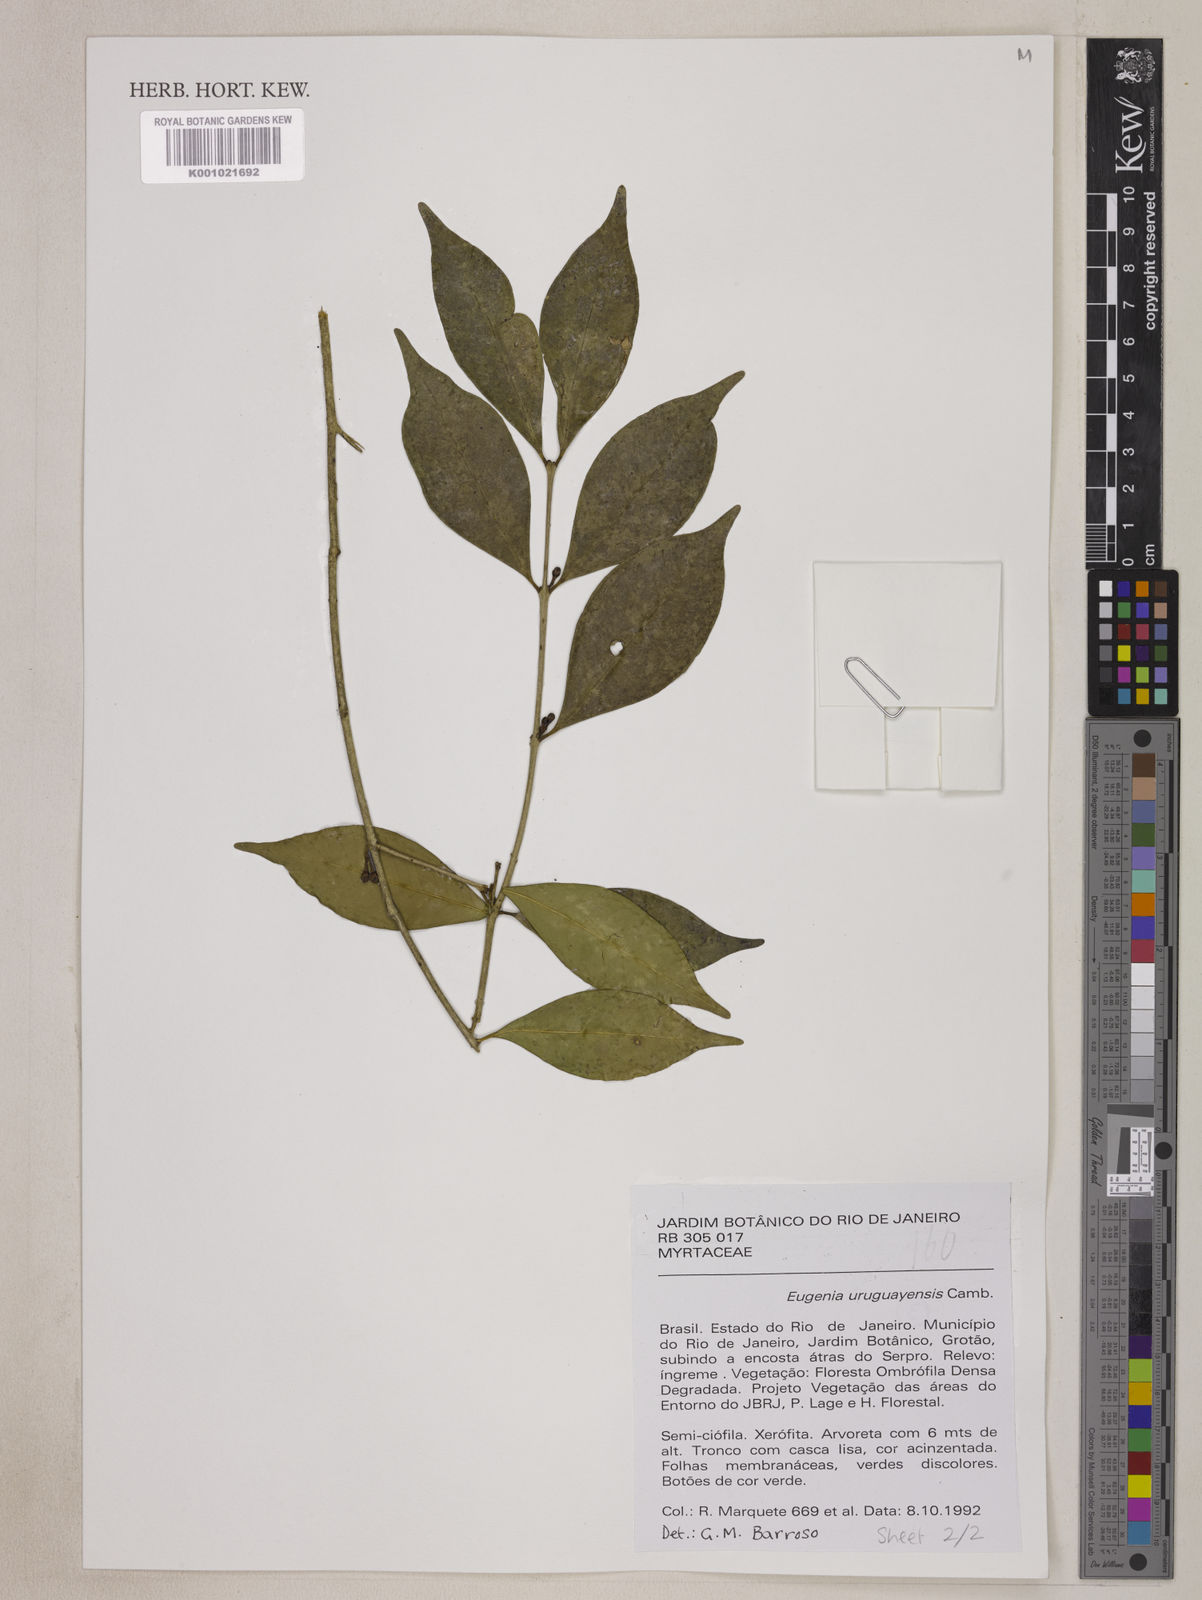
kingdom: Plantae
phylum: Tracheophyta
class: Magnoliopsida
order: Myrtales
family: Myrtaceae
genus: Eugenia
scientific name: Eugenia uruguayensis
